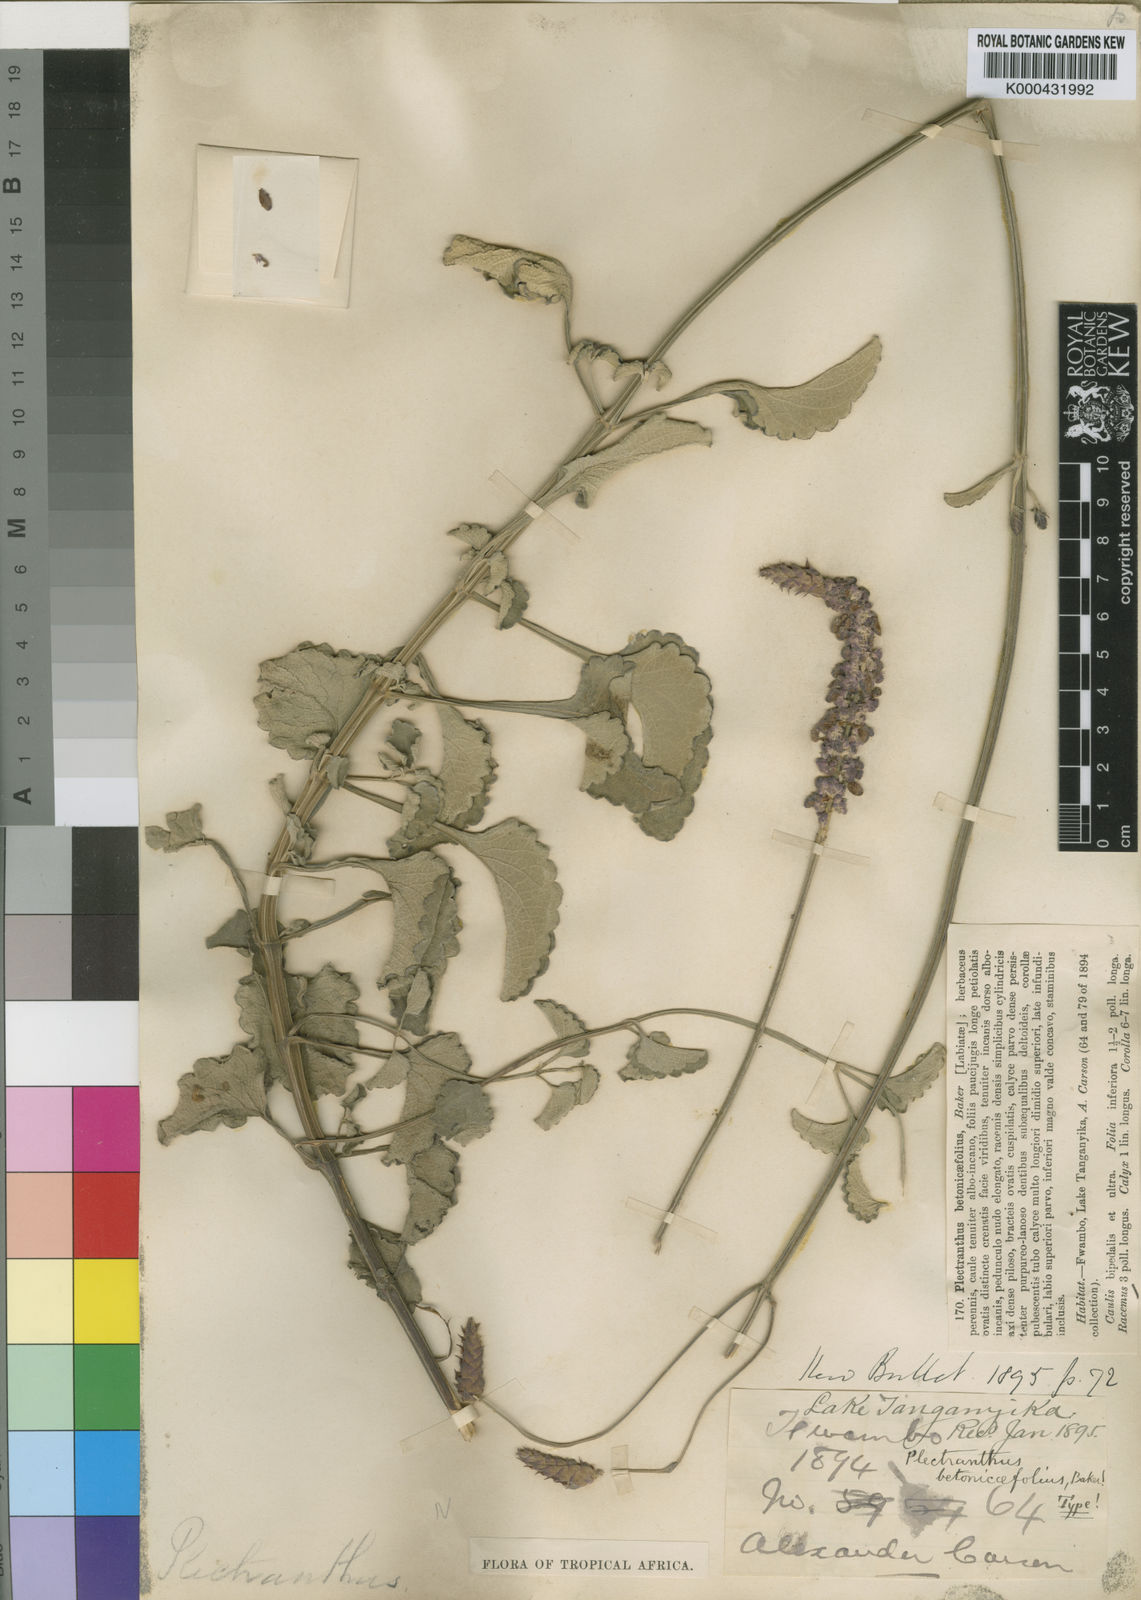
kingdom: Plantae
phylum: Tracheophyta
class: Magnoliopsida
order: Lamiales
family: Lamiaceae
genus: Coleus
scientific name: Coleus betonicifolius
